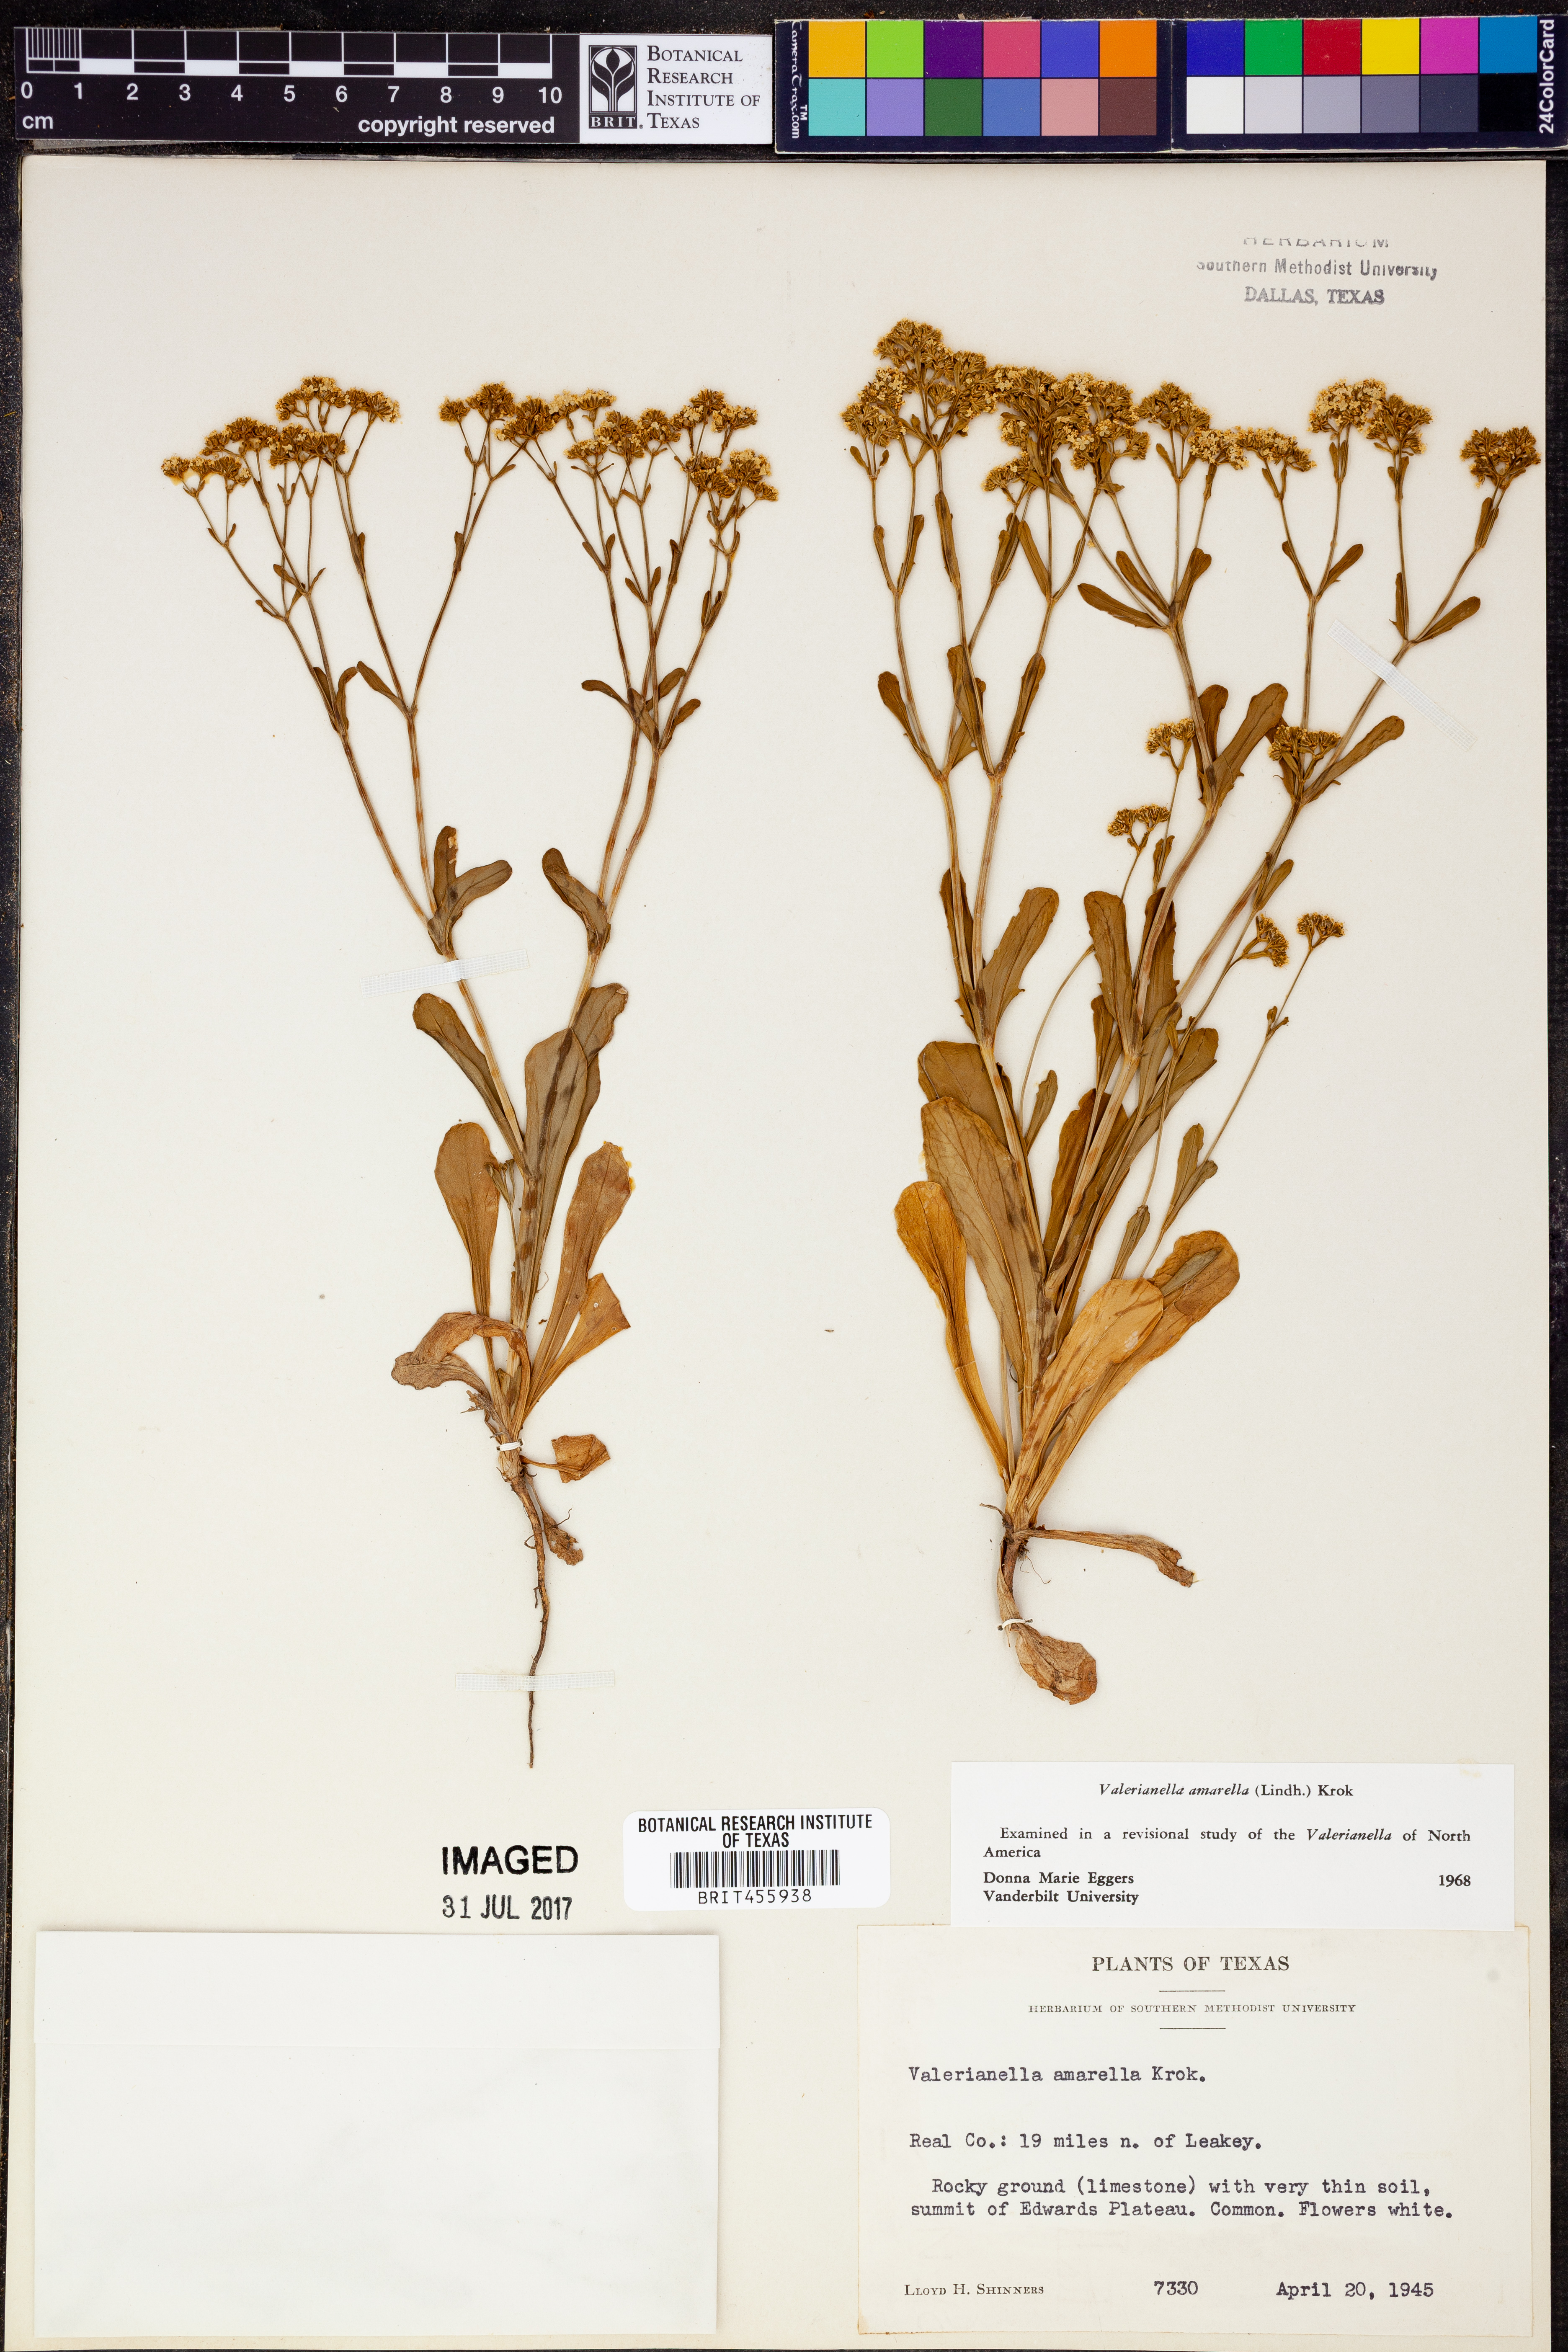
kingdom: Plantae
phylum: Tracheophyta
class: Magnoliopsida
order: Dipsacales
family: Caprifoliaceae
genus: Valerianella
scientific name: Valerianella amarella
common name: Hariy cornsalad
